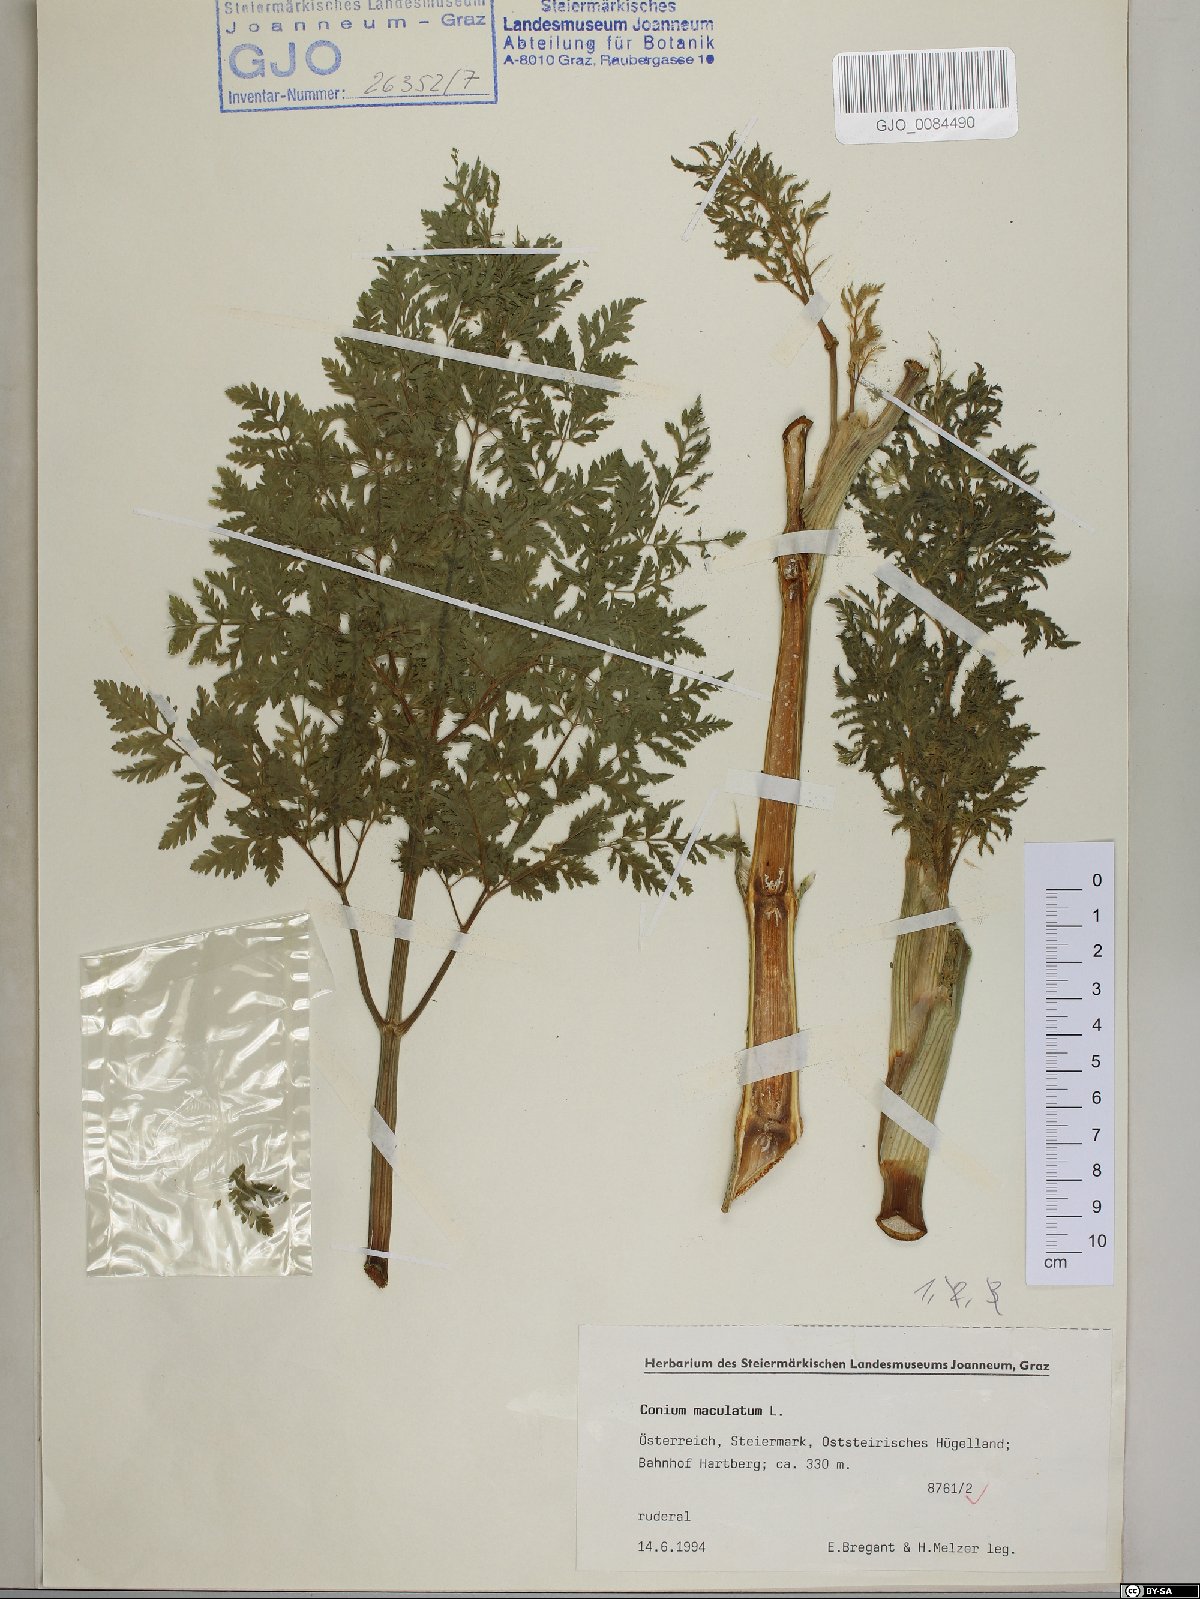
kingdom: Plantae
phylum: Tracheophyta
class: Magnoliopsida
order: Apiales
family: Apiaceae
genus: Conium
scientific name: Conium maculatum
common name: Hemlock
